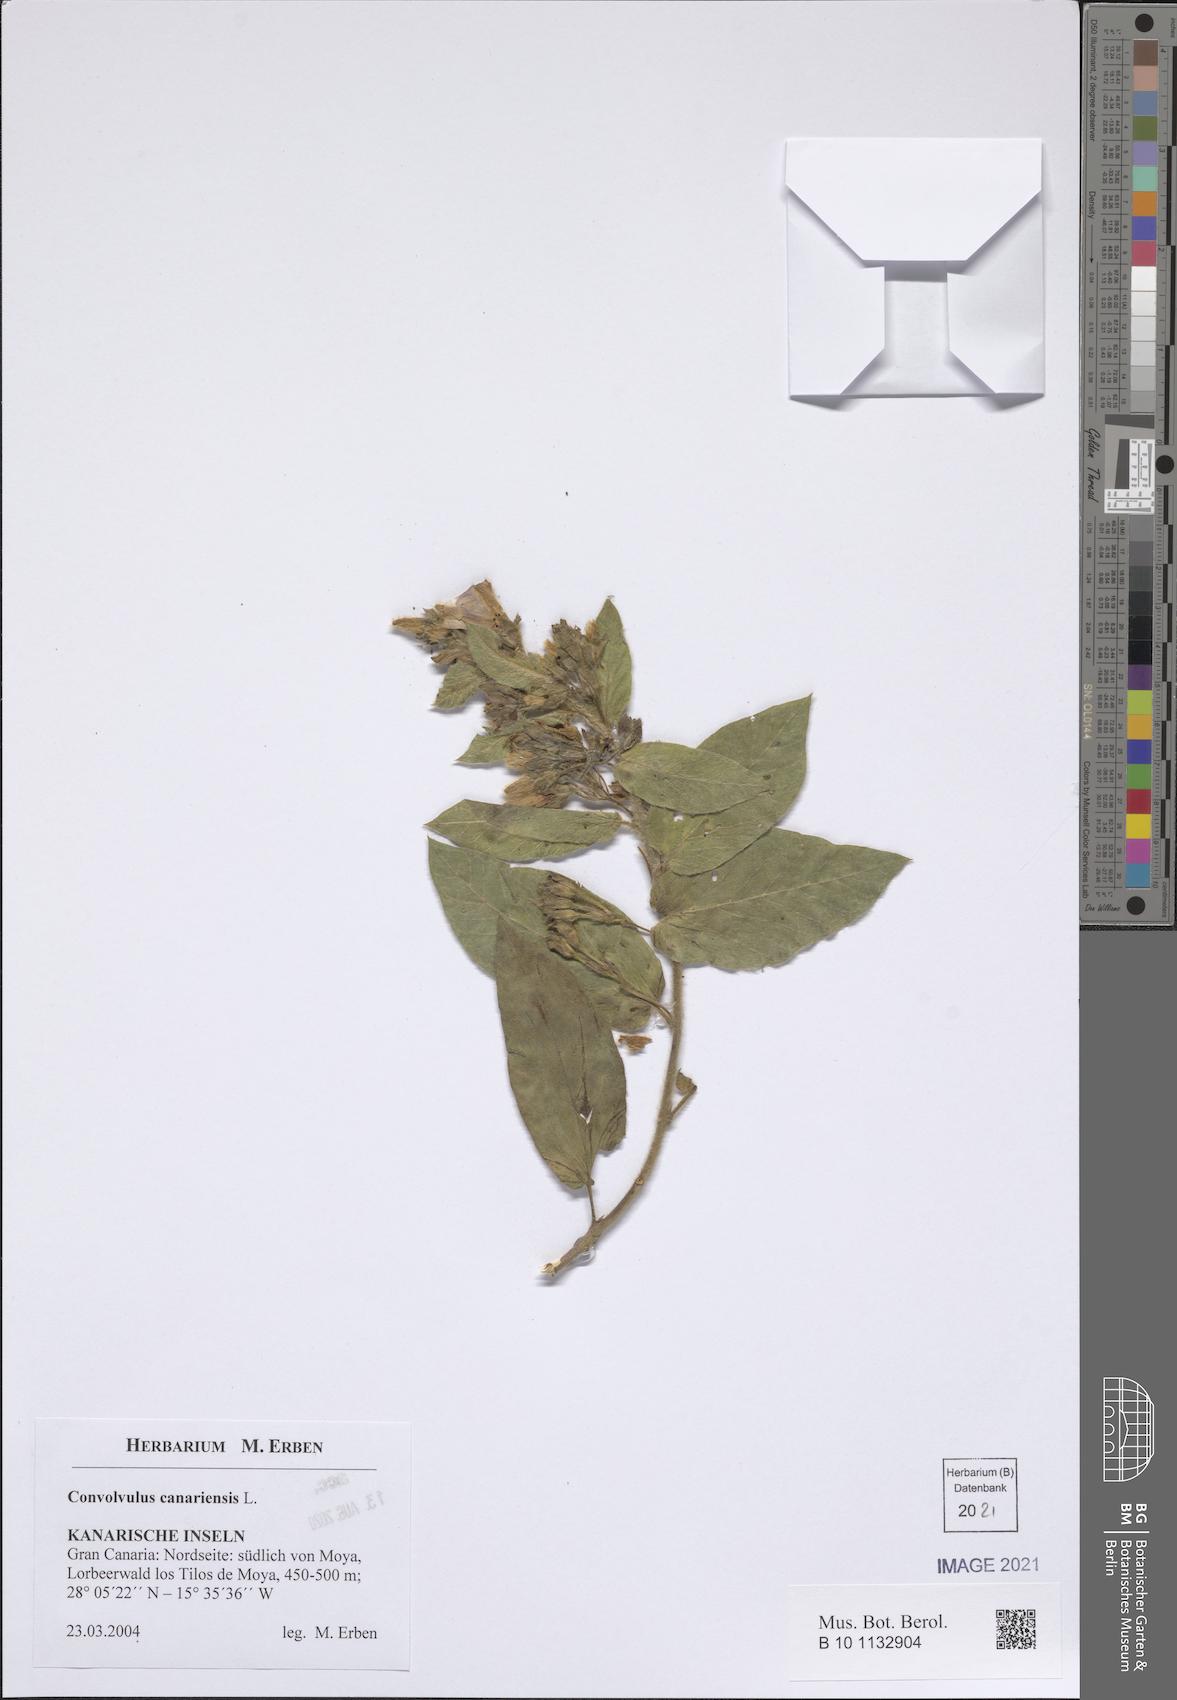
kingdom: Plantae
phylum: Tracheophyta
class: Magnoliopsida
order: Solanales
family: Convolvulaceae
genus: Convolvulus
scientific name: Convolvulus canariensis
